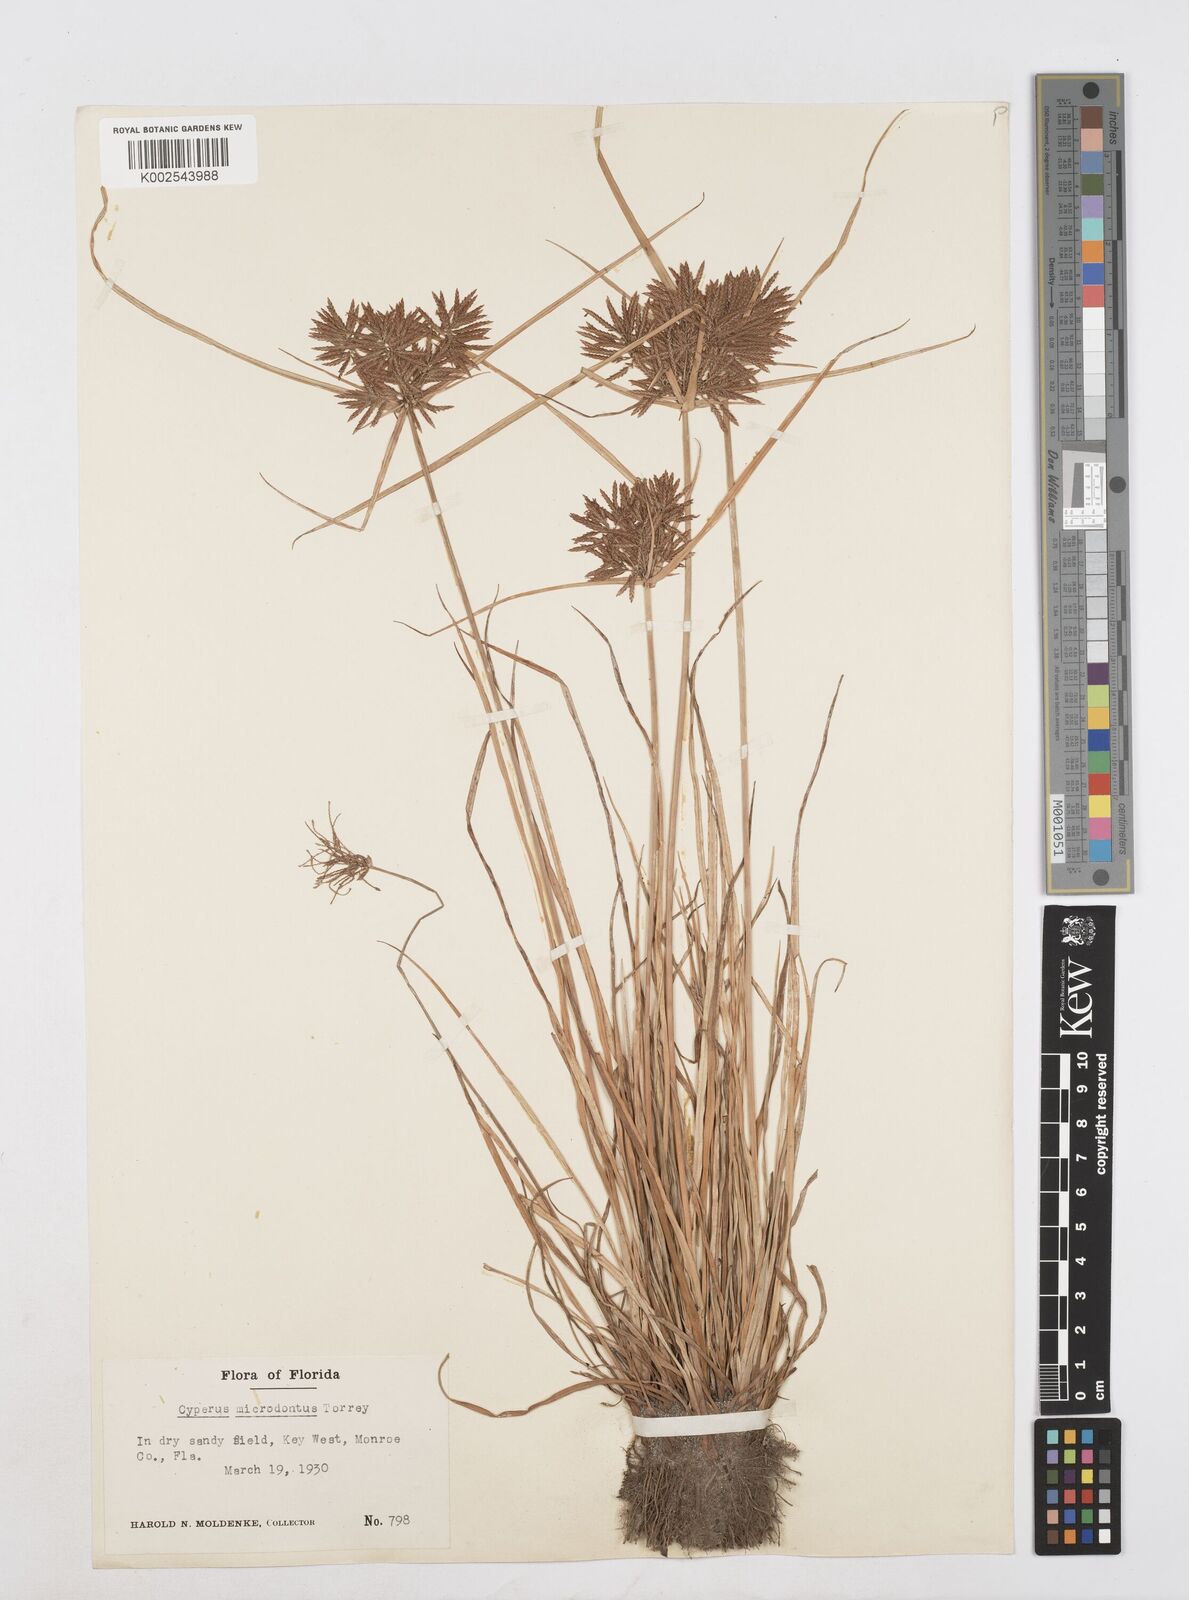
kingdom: Plantae
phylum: Tracheophyta
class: Liliopsida
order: Poales
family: Cyperaceae
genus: Cyperus
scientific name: Cyperus polystachyos
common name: Bunchy flat sedge
